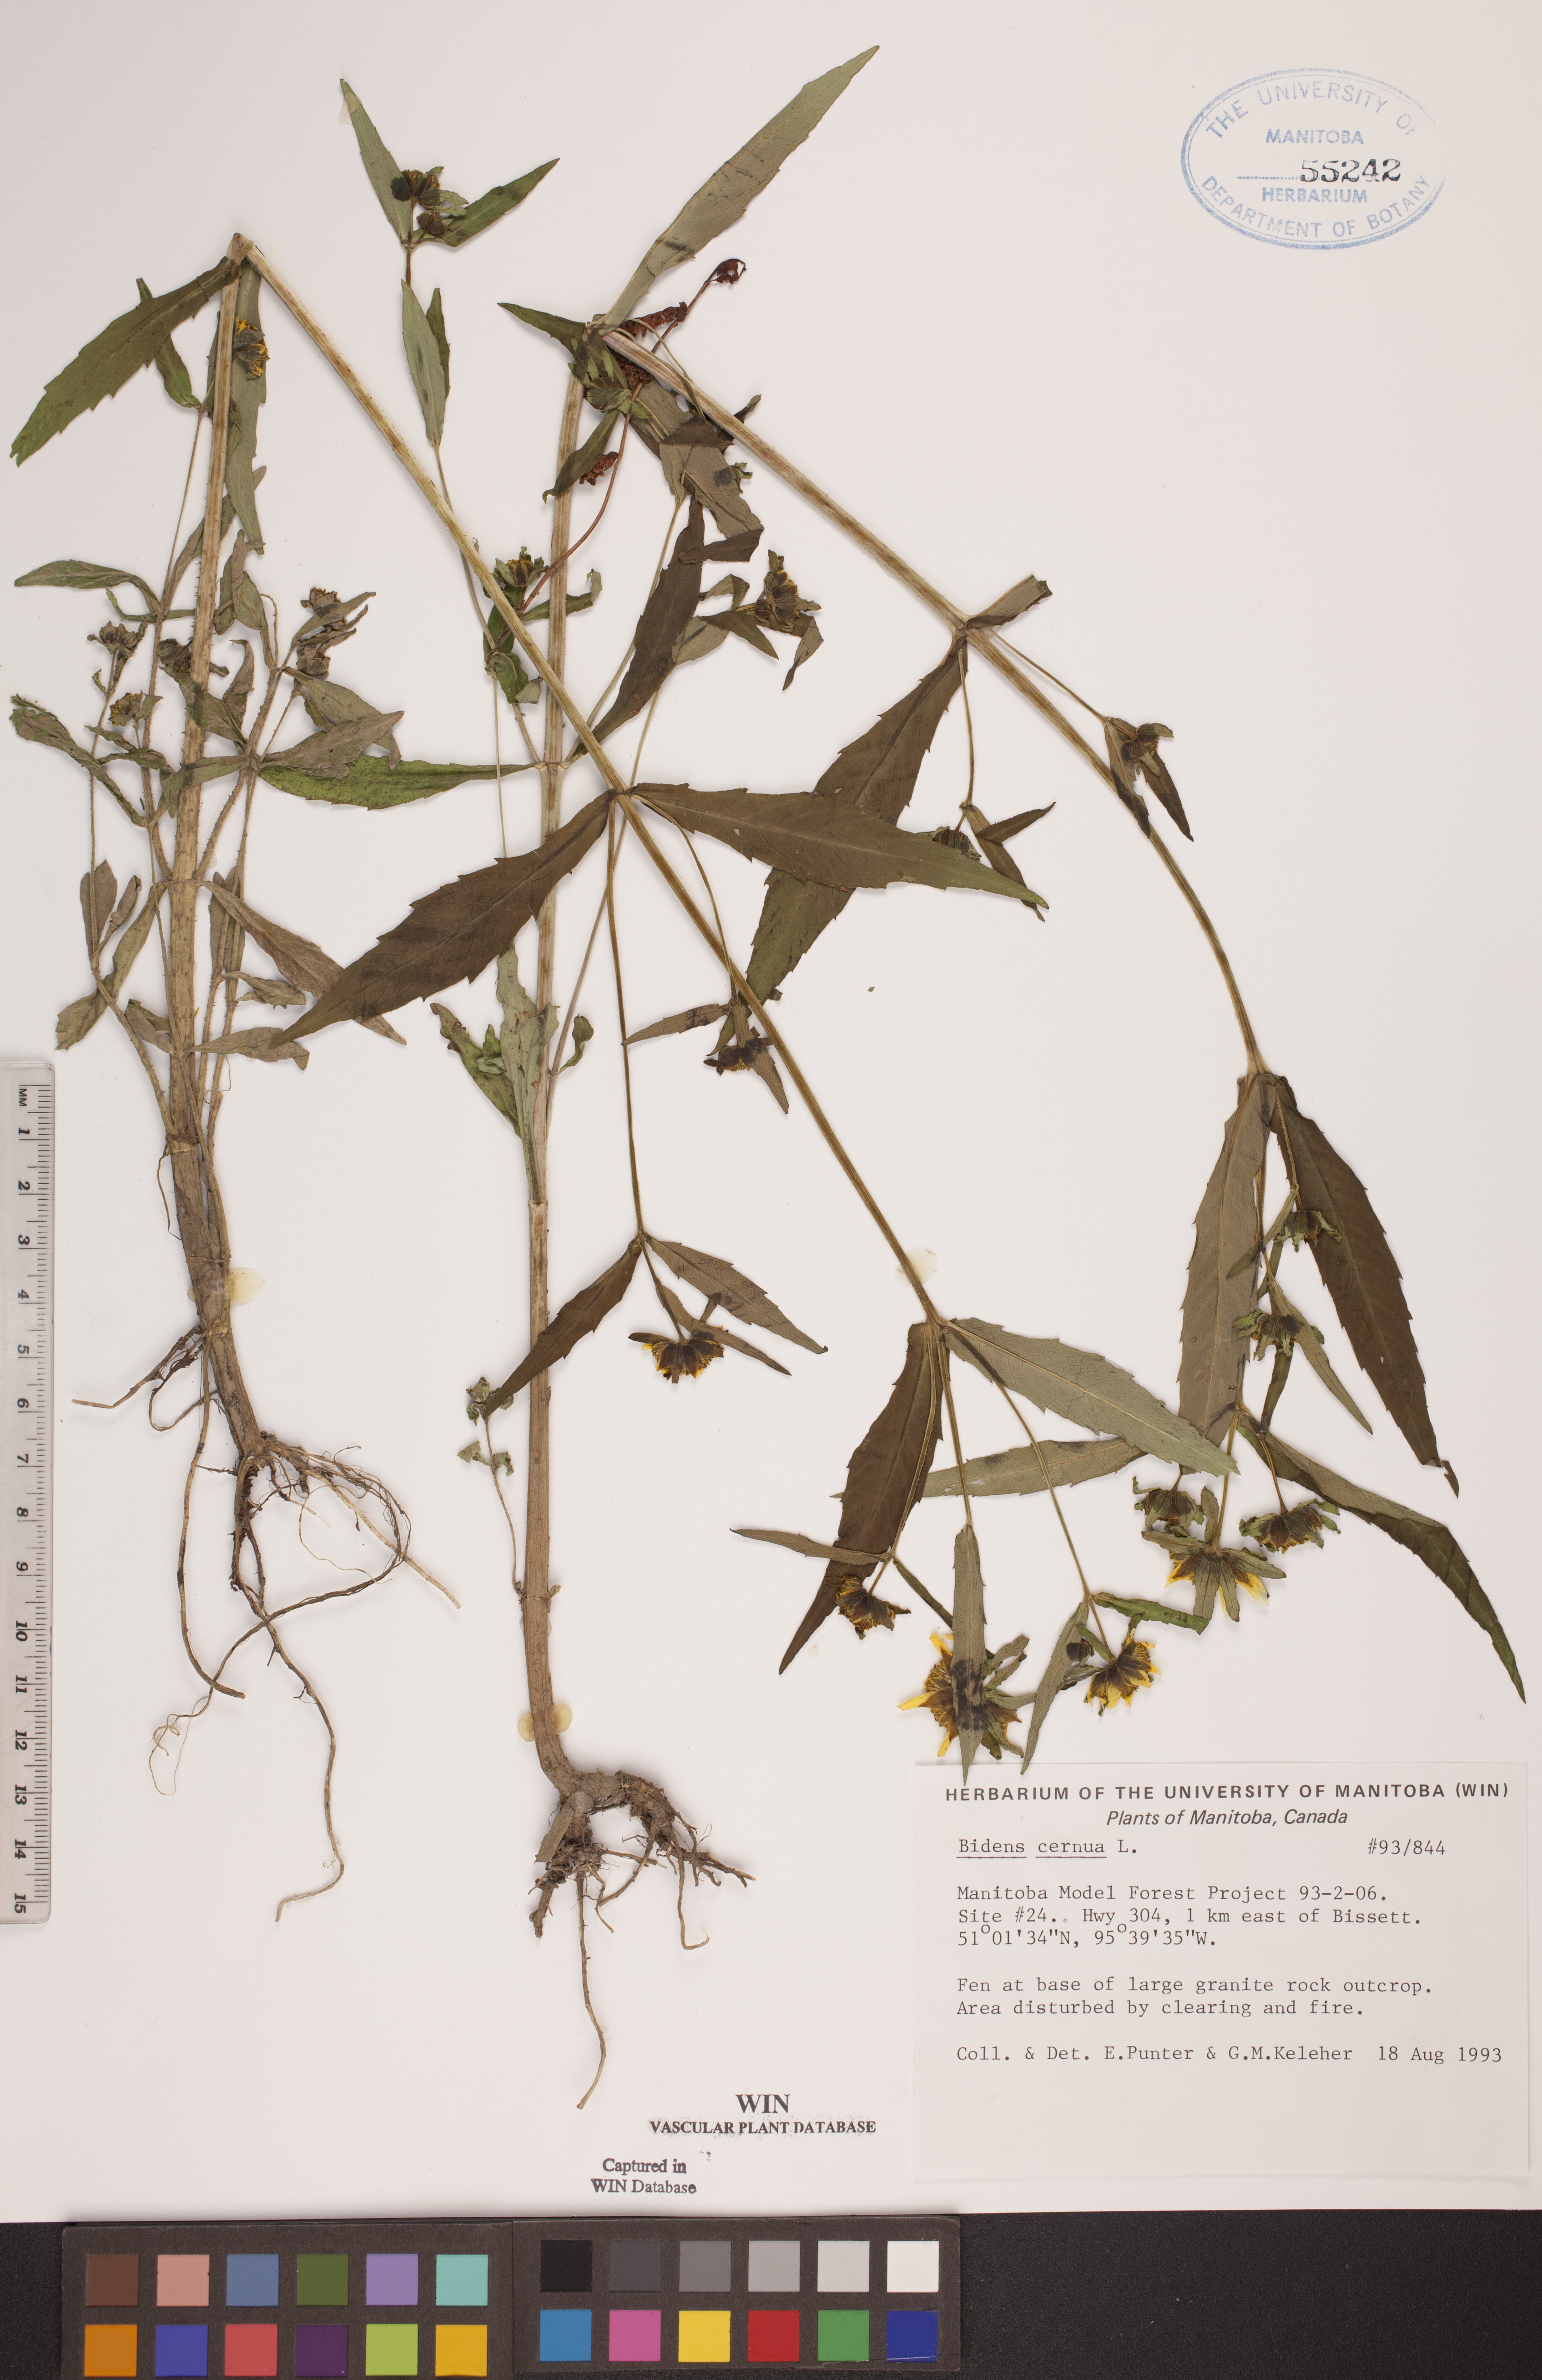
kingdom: Plantae
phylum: Tracheophyta
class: Magnoliopsida
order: Asterales
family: Asteraceae
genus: Bidens
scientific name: Bidens cernua
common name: Nodding bur-marigold
